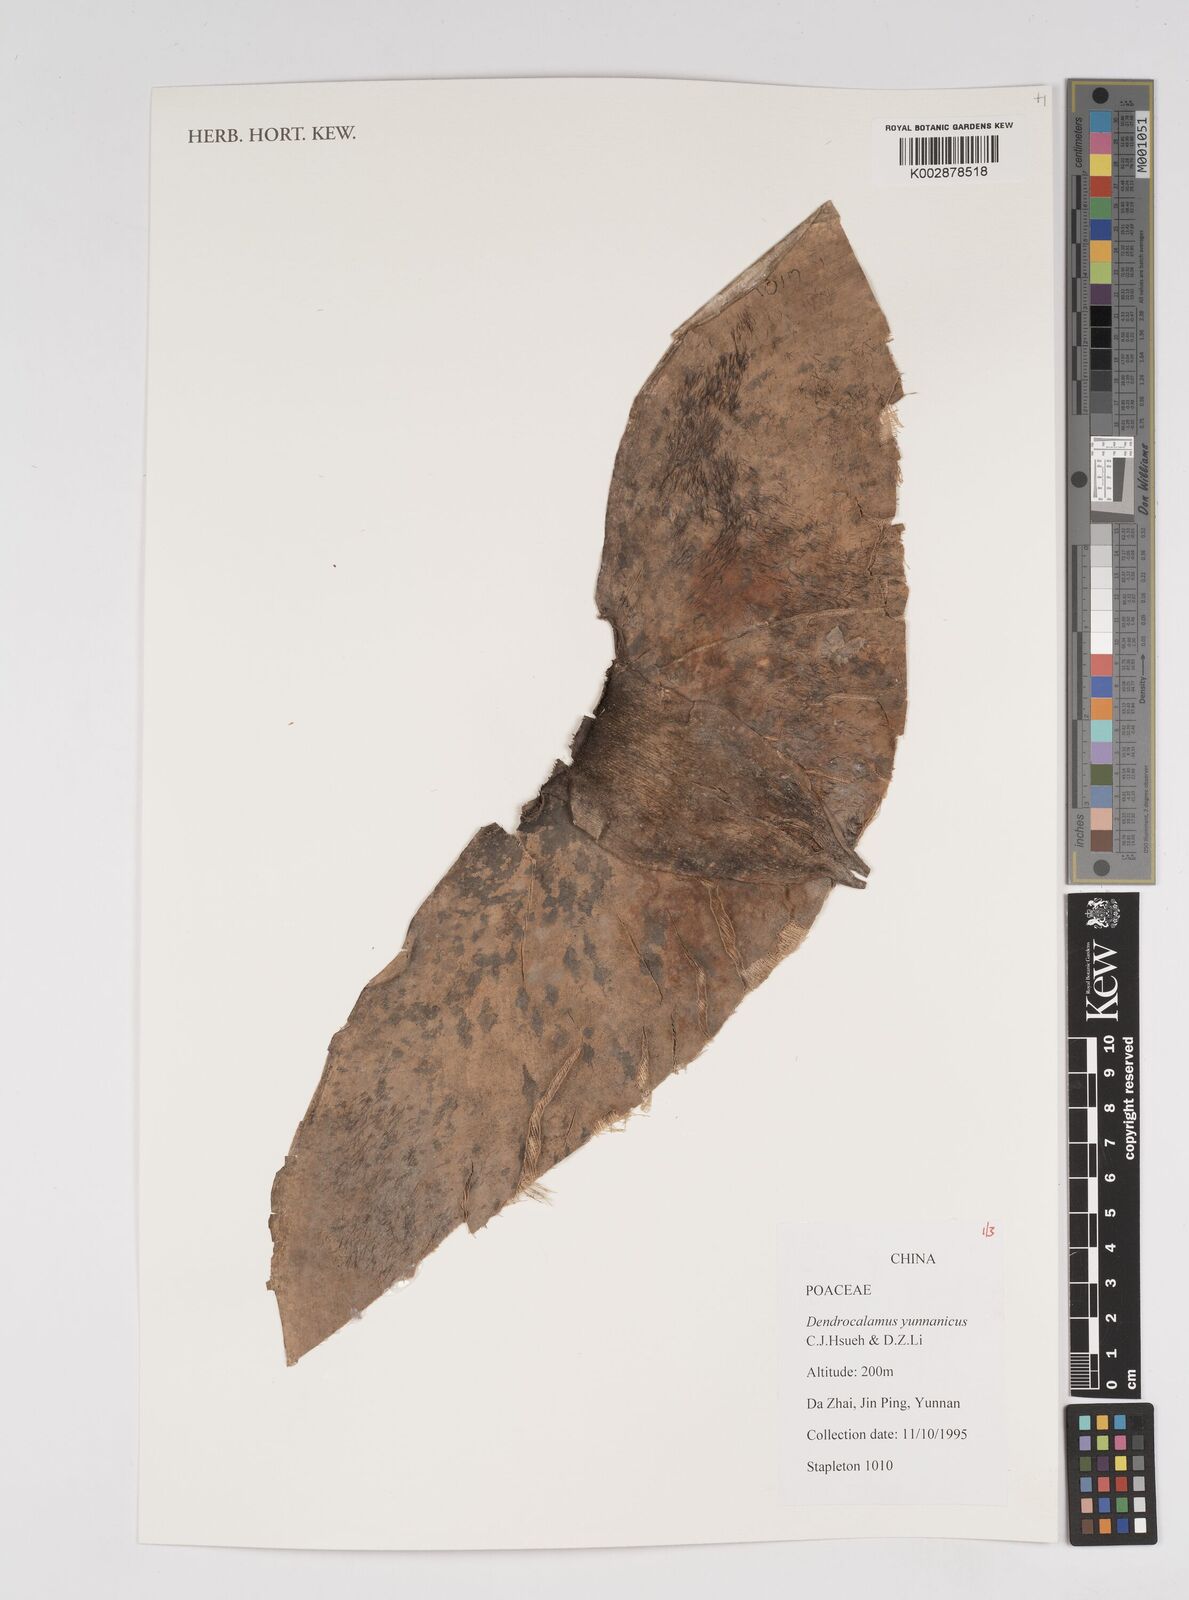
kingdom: Plantae
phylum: Tracheophyta
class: Liliopsida
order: Poales
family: Poaceae
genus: Dendrocalamus
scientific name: Dendrocalamus yunnanicus
